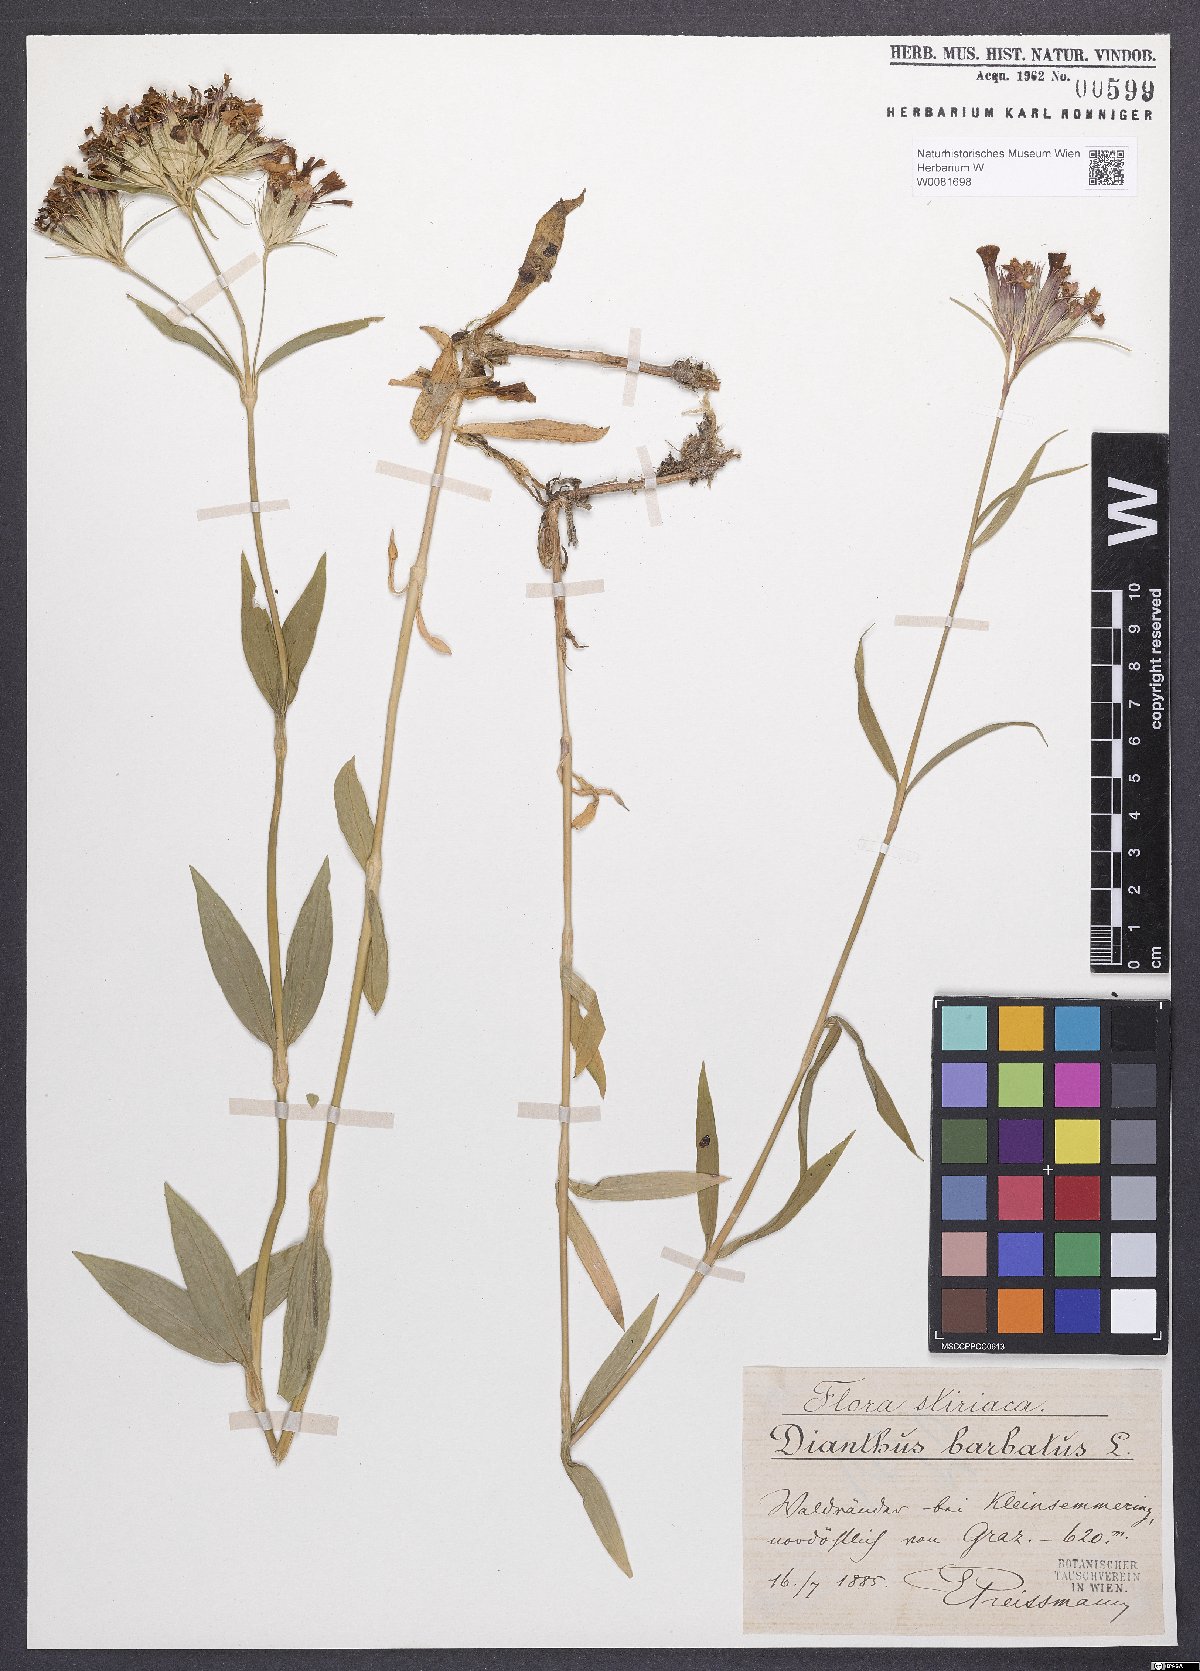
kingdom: Plantae
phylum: Tracheophyta
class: Magnoliopsida
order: Caryophyllales
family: Caryophyllaceae
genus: Dianthus
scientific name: Dianthus barbatus
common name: Sweet-william
